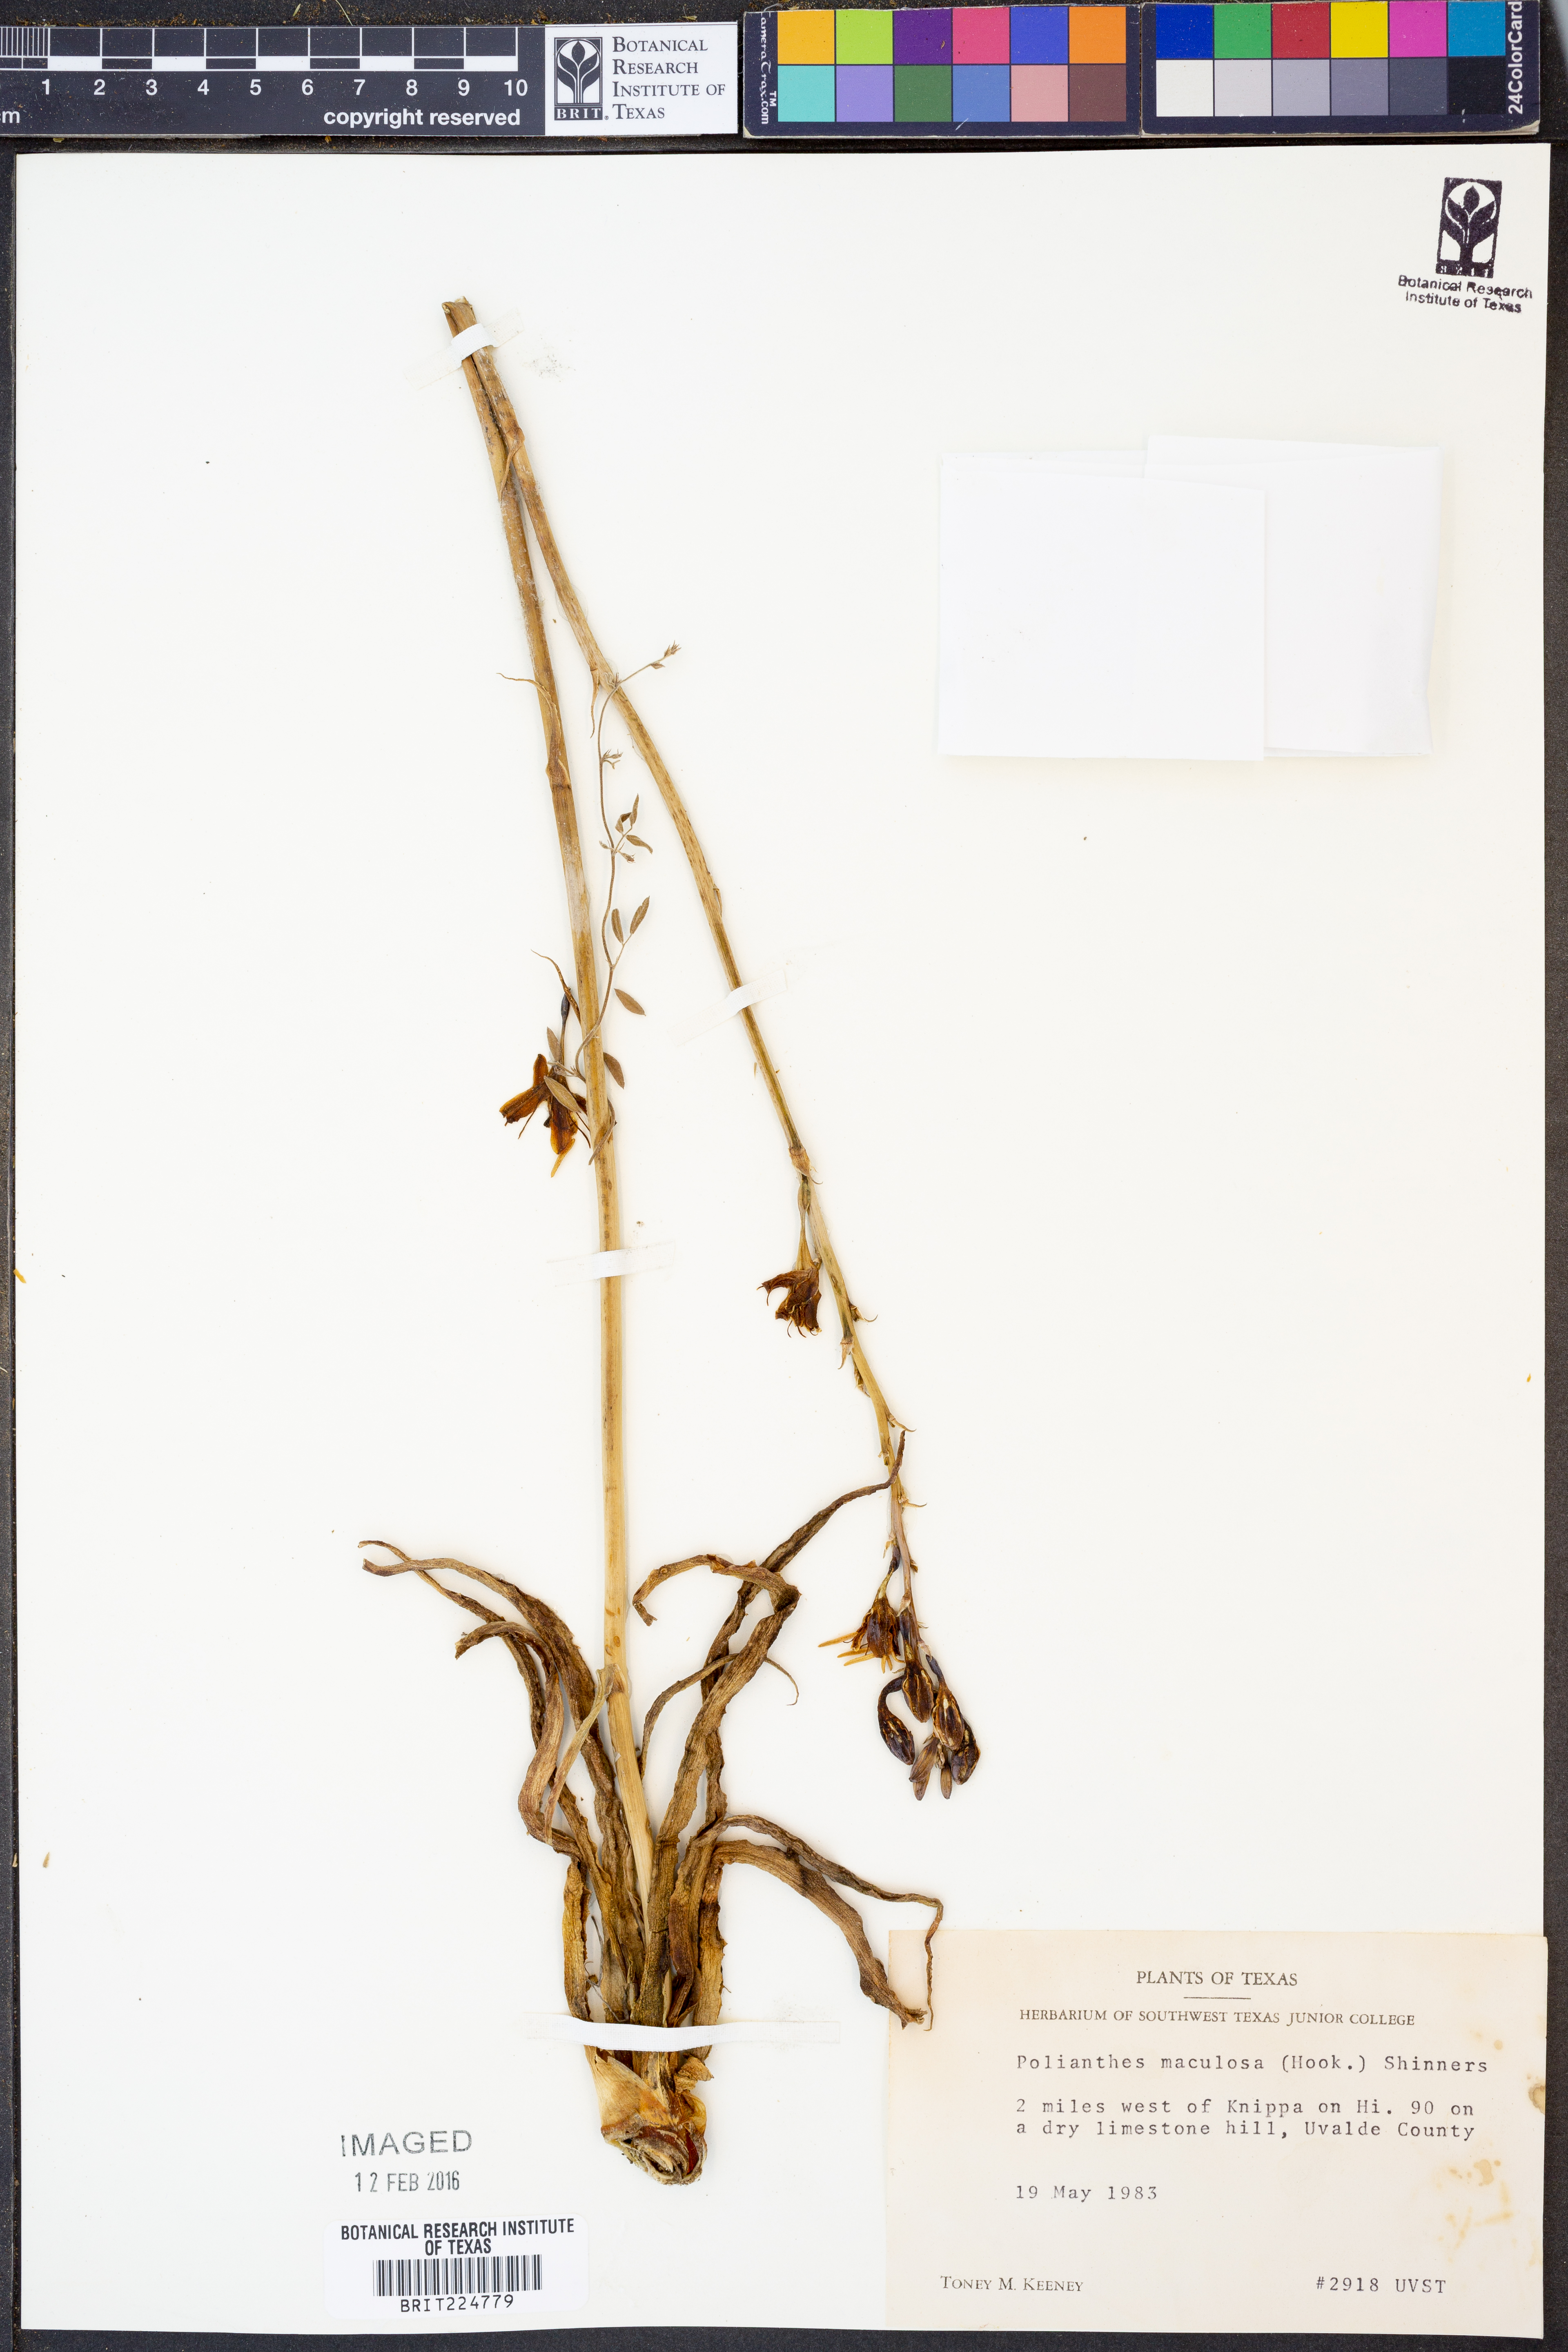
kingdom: Plantae
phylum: Tracheophyta
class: Liliopsida
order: Asparagales
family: Asparagaceae
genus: Agave
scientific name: Agave maculata
